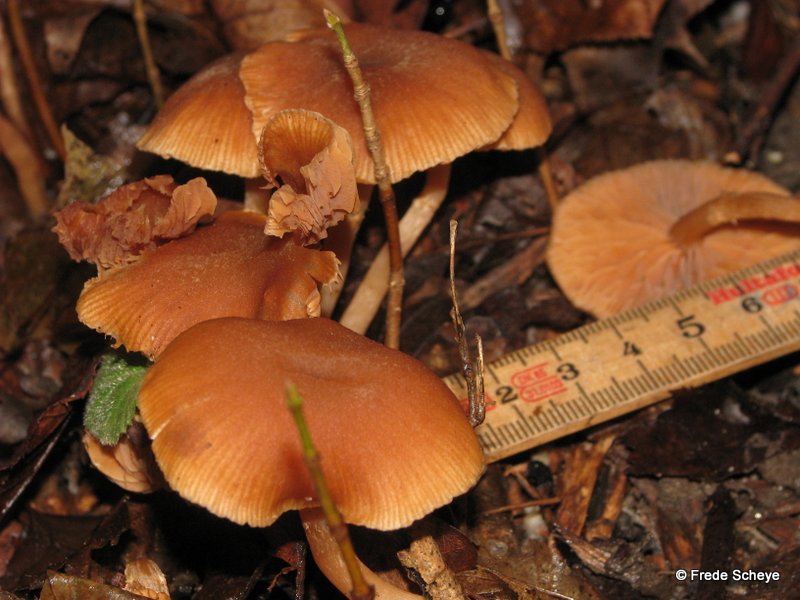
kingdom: Fungi
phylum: Basidiomycota
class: Agaricomycetes
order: Agaricales
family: Tubariaceae
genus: Tubaria
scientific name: Tubaria furfuracea
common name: kliddet fnughat
